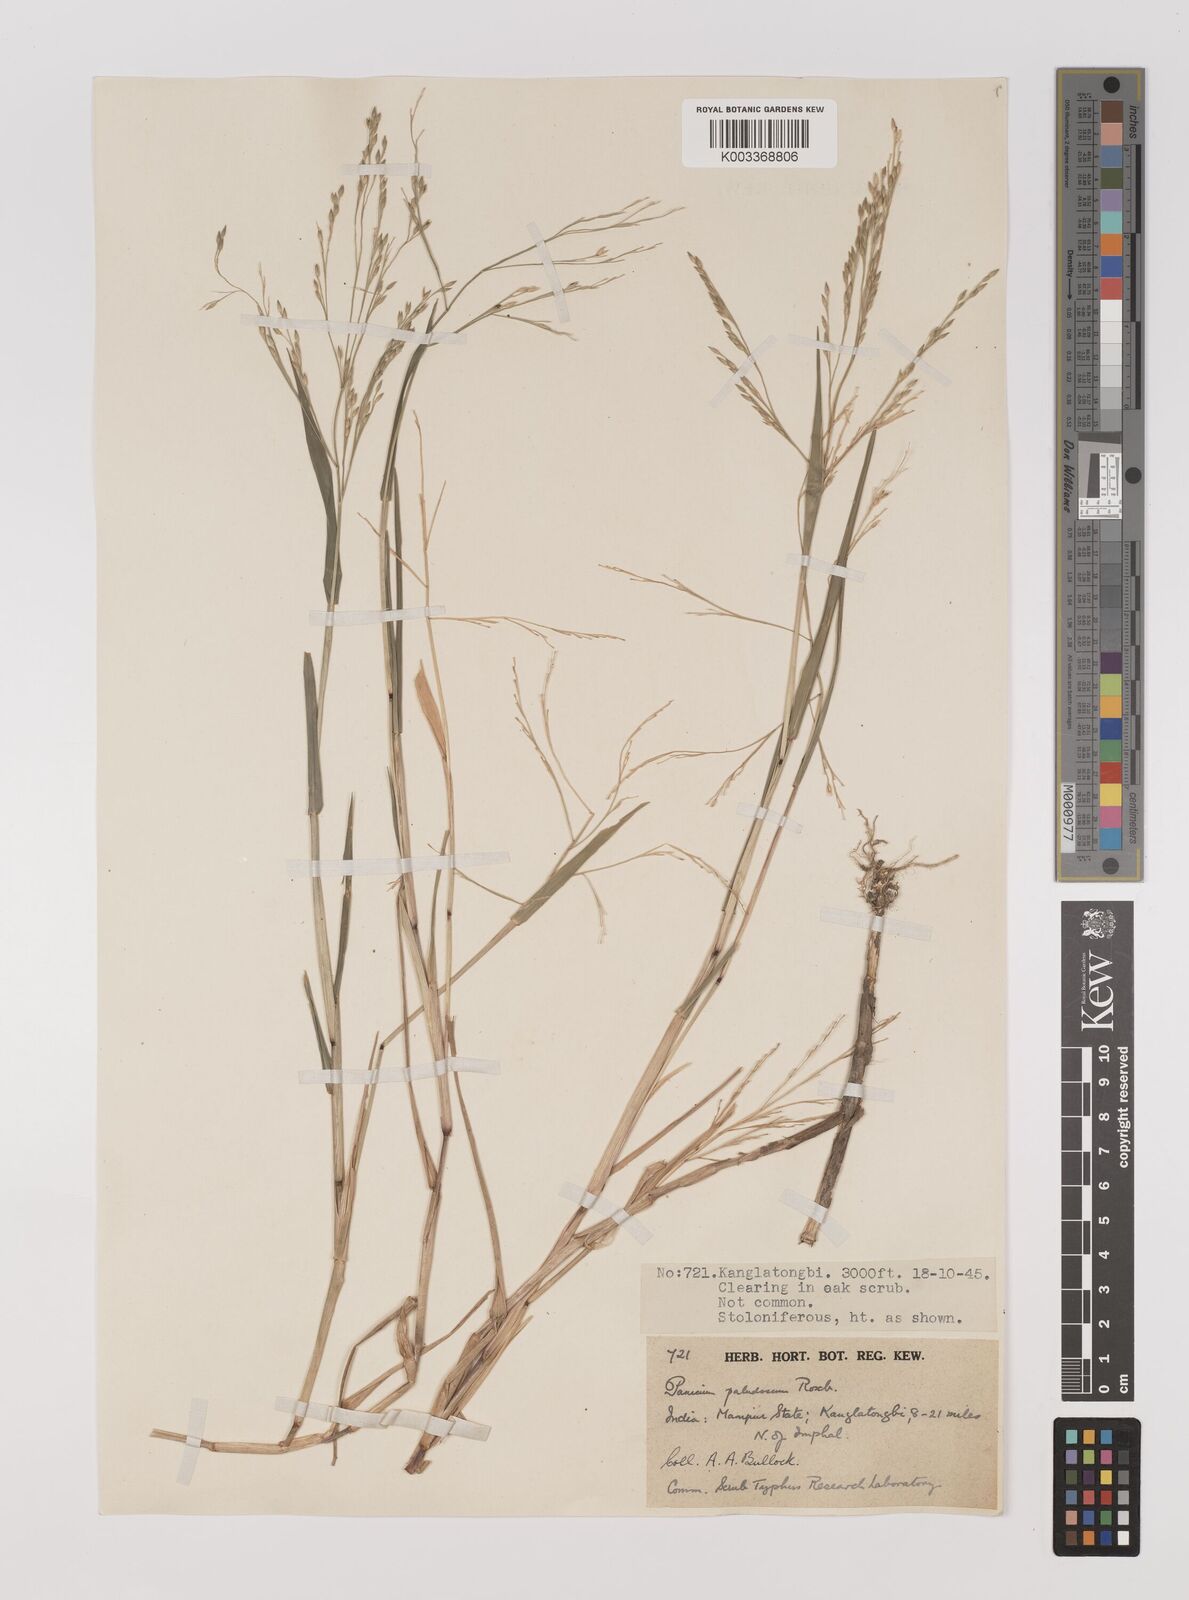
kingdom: Plantae
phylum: Tracheophyta
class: Liliopsida
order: Poales
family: Poaceae
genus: Louisiella
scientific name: Louisiella paludosa
